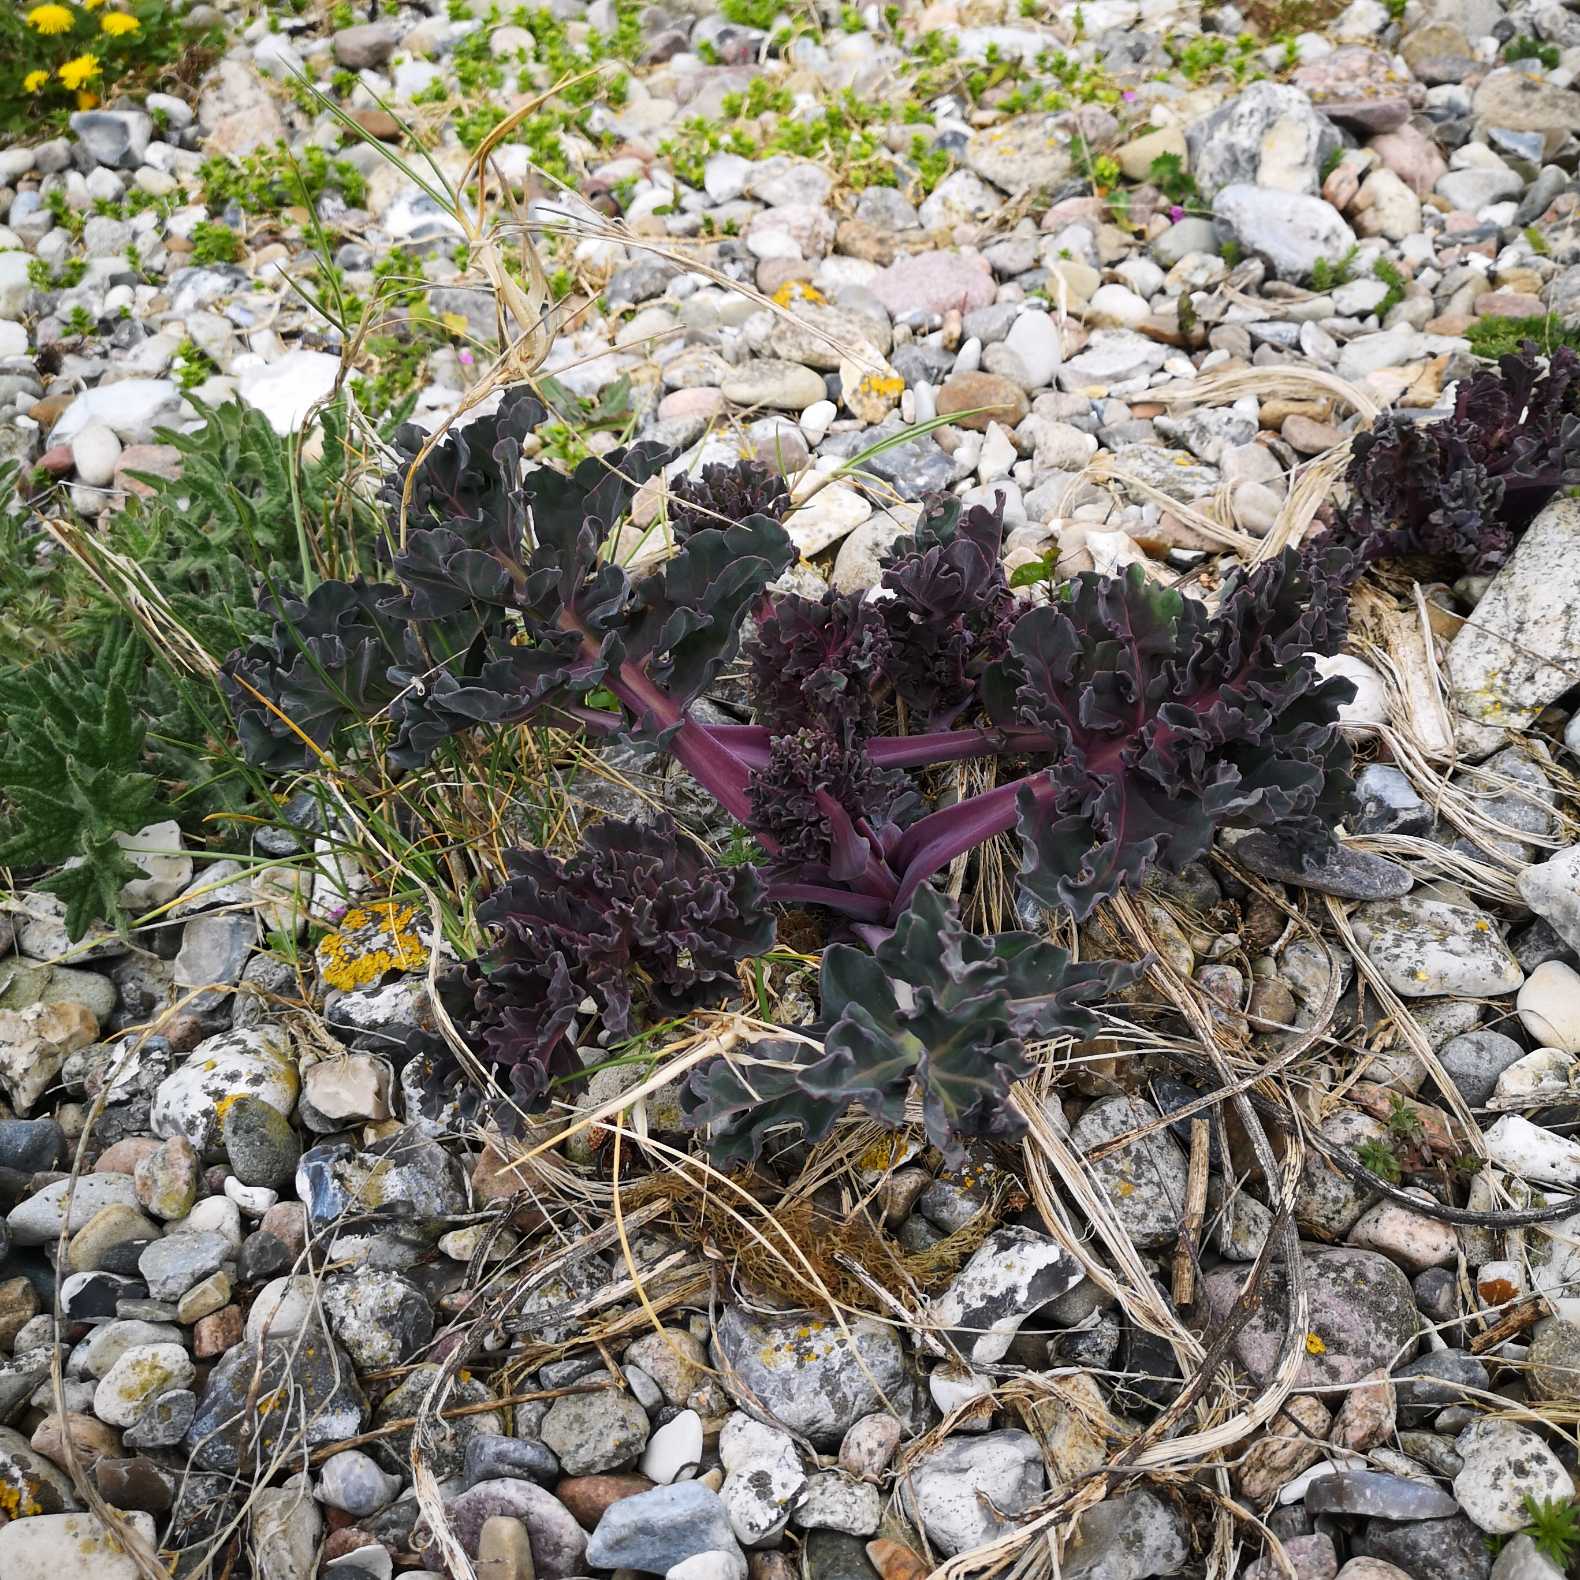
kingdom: Plantae
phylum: Tracheophyta
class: Magnoliopsida
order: Brassicales
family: Brassicaceae
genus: Crambe
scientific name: Crambe maritima
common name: Strandkål
